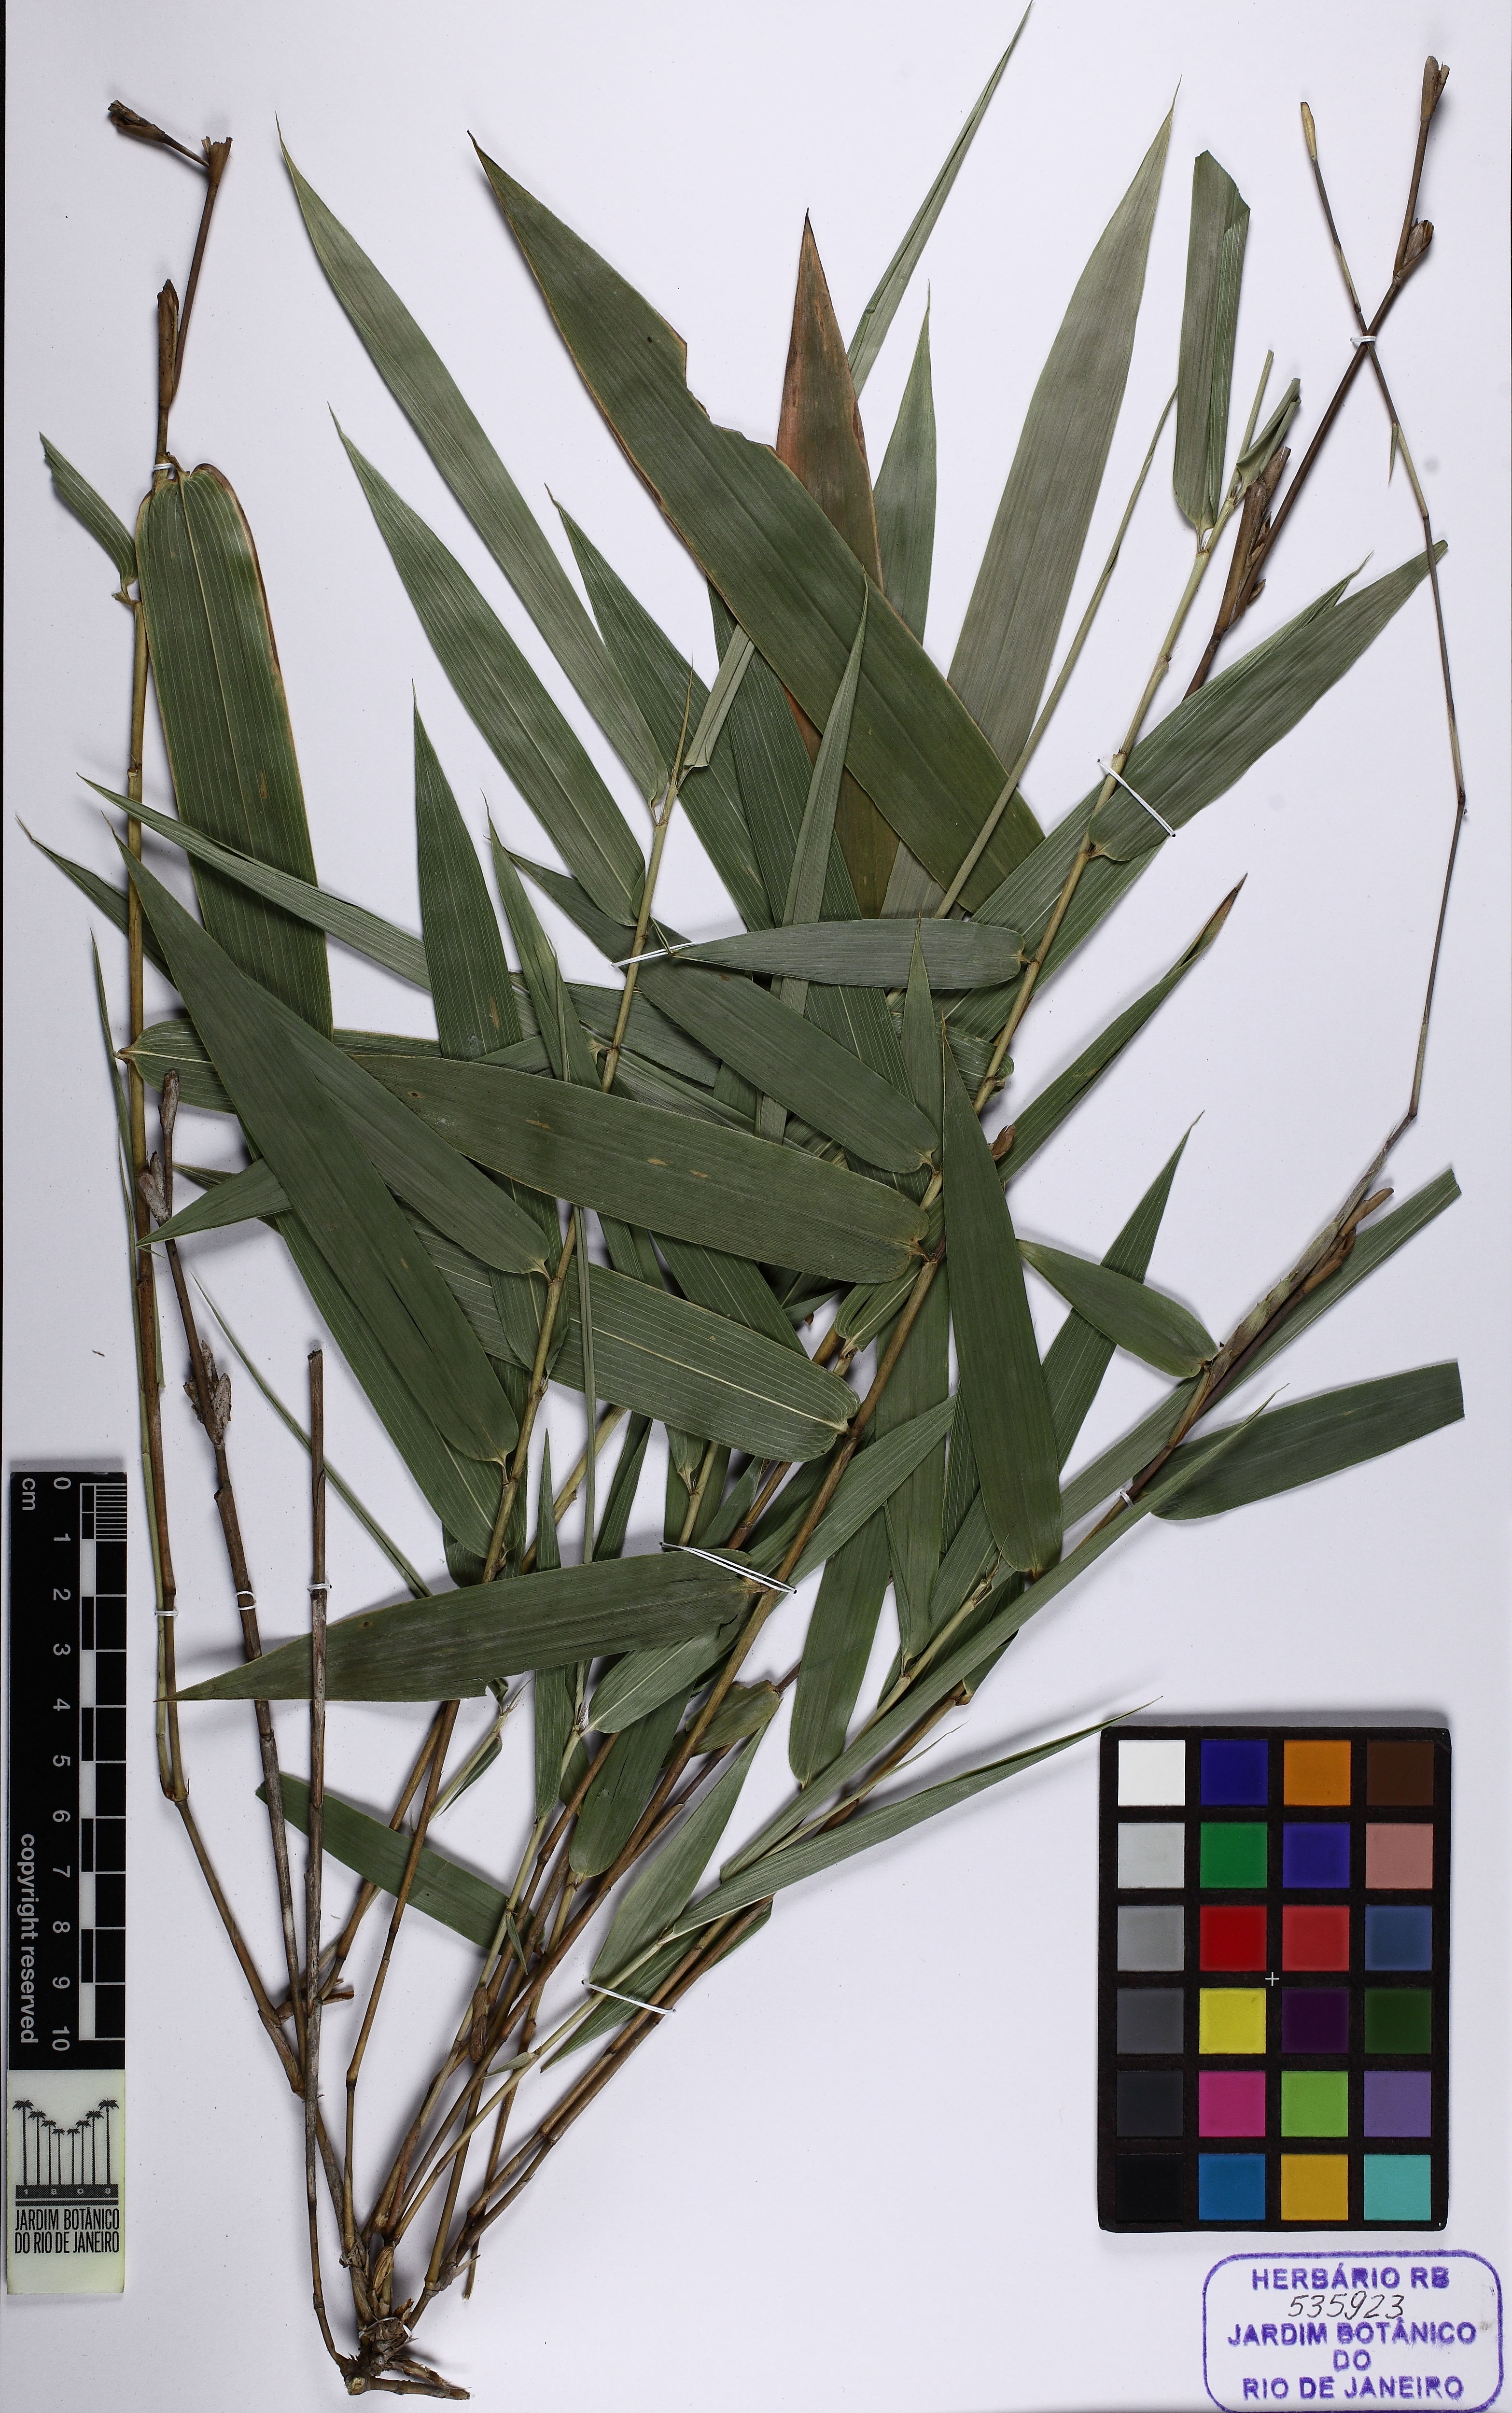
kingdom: Plantae
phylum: Tracheophyta
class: Liliopsida
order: Poales
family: Poaceae
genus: Guadua
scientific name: Guadua
